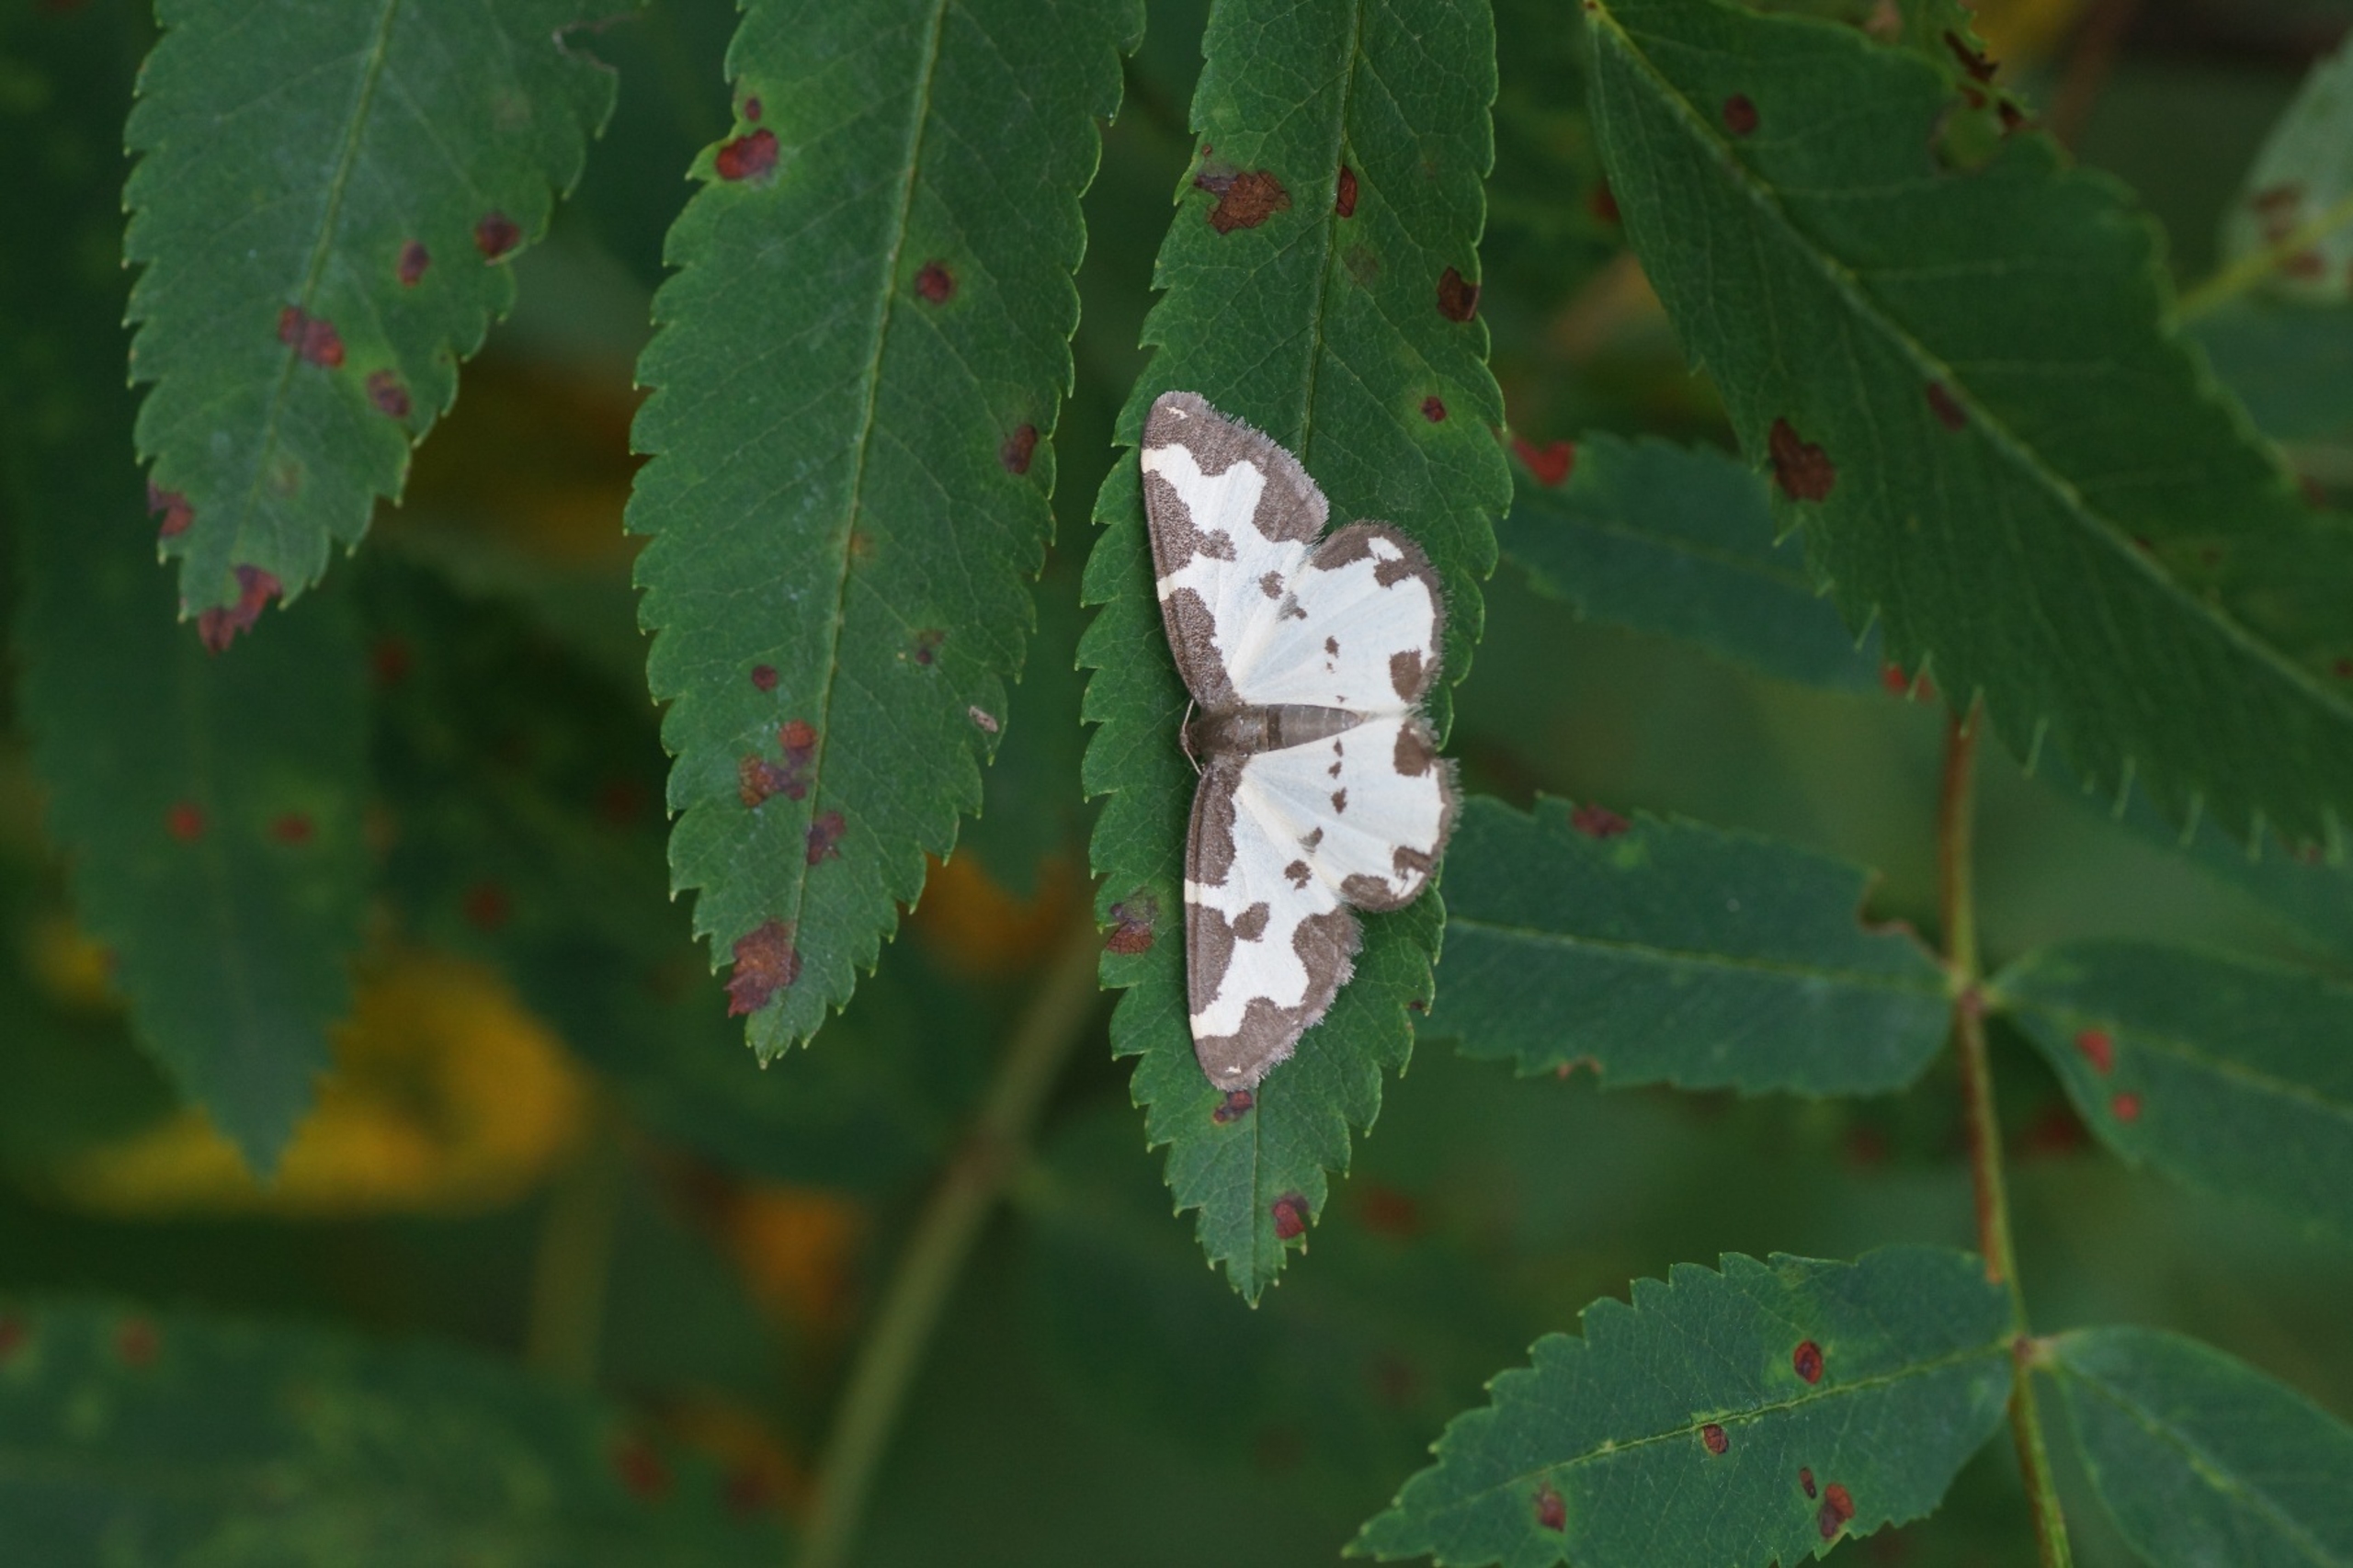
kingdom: Animalia
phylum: Arthropoda
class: Insecta
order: Lepidoptera
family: Geometridae
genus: Lomaspilis
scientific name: Lomaspilis marginata
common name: Sortrandet måler
